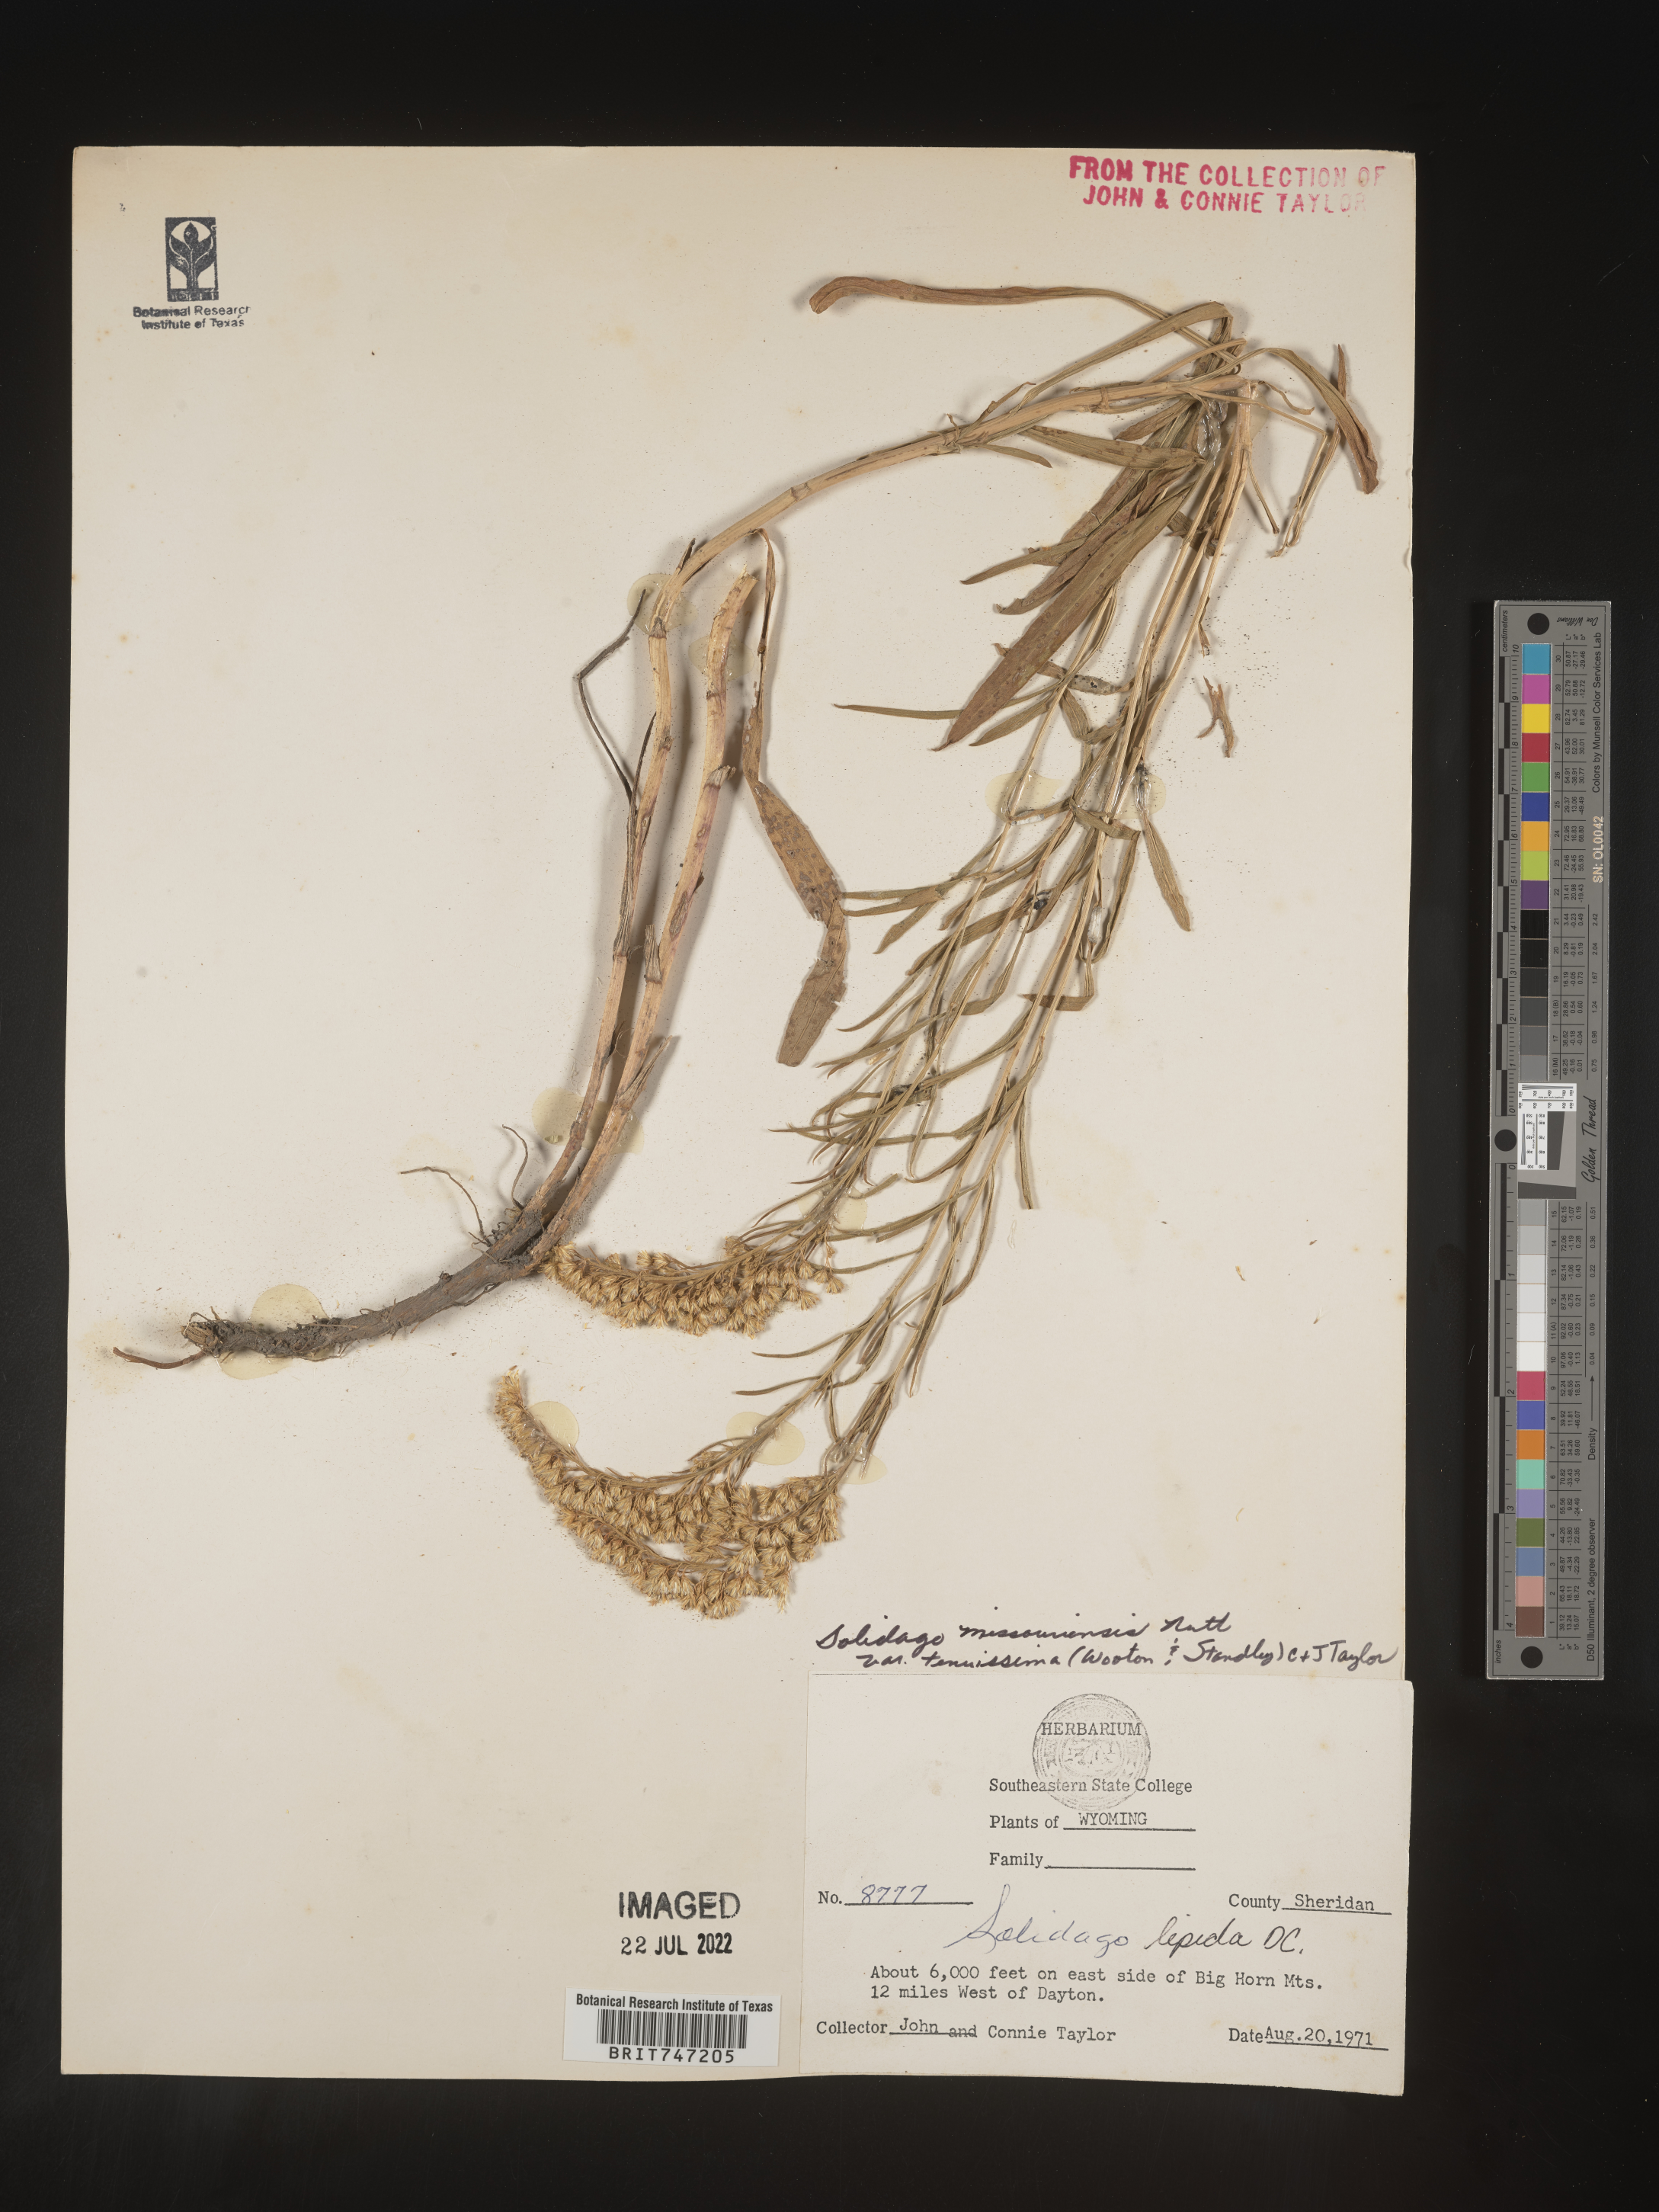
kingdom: Plantae
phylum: Tracheophyta
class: Magnoliopsida
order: Asterales
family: Asteraceae
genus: Solidago
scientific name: Solidago missouriensis
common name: Prairie goldenrod
